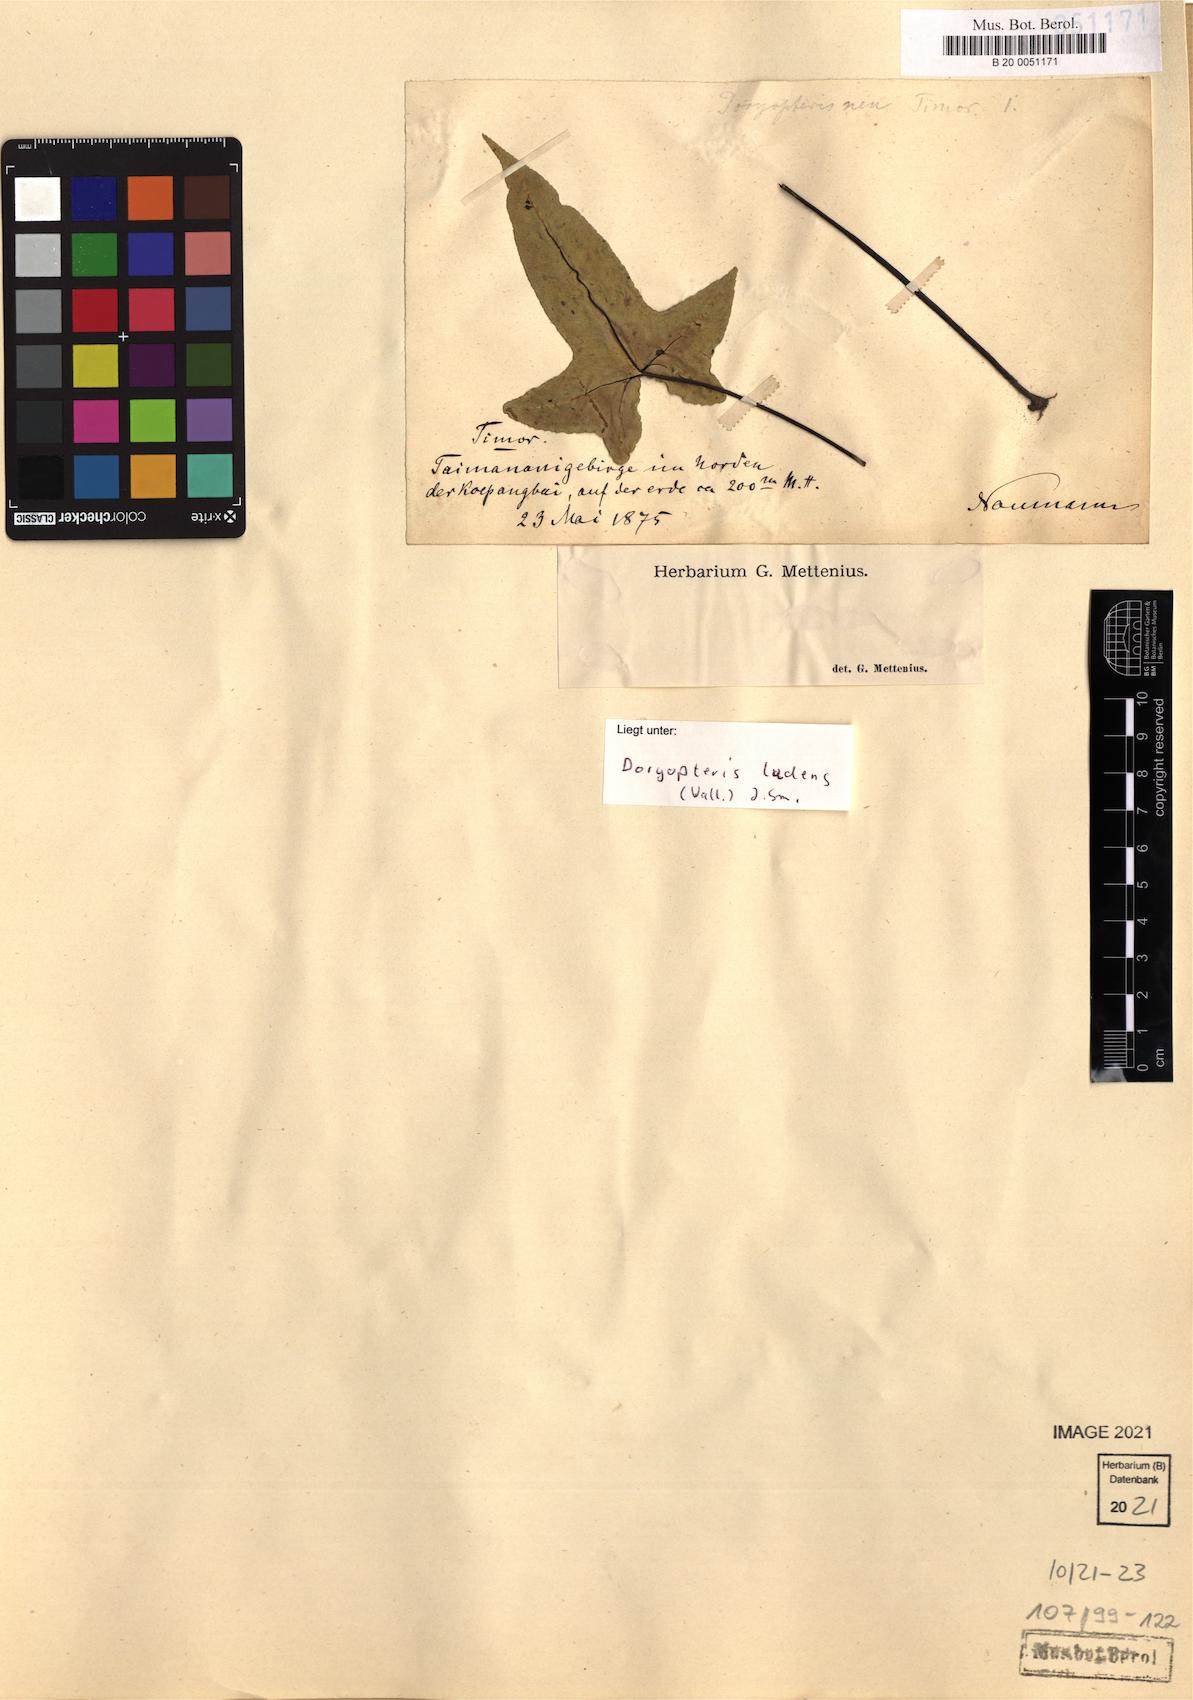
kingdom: Plantae
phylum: Tracheophyta
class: Polypodiopsida
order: Polypodiales
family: Pteridaceae
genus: Calciphilopteris
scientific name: Calciphilopteris ludens
